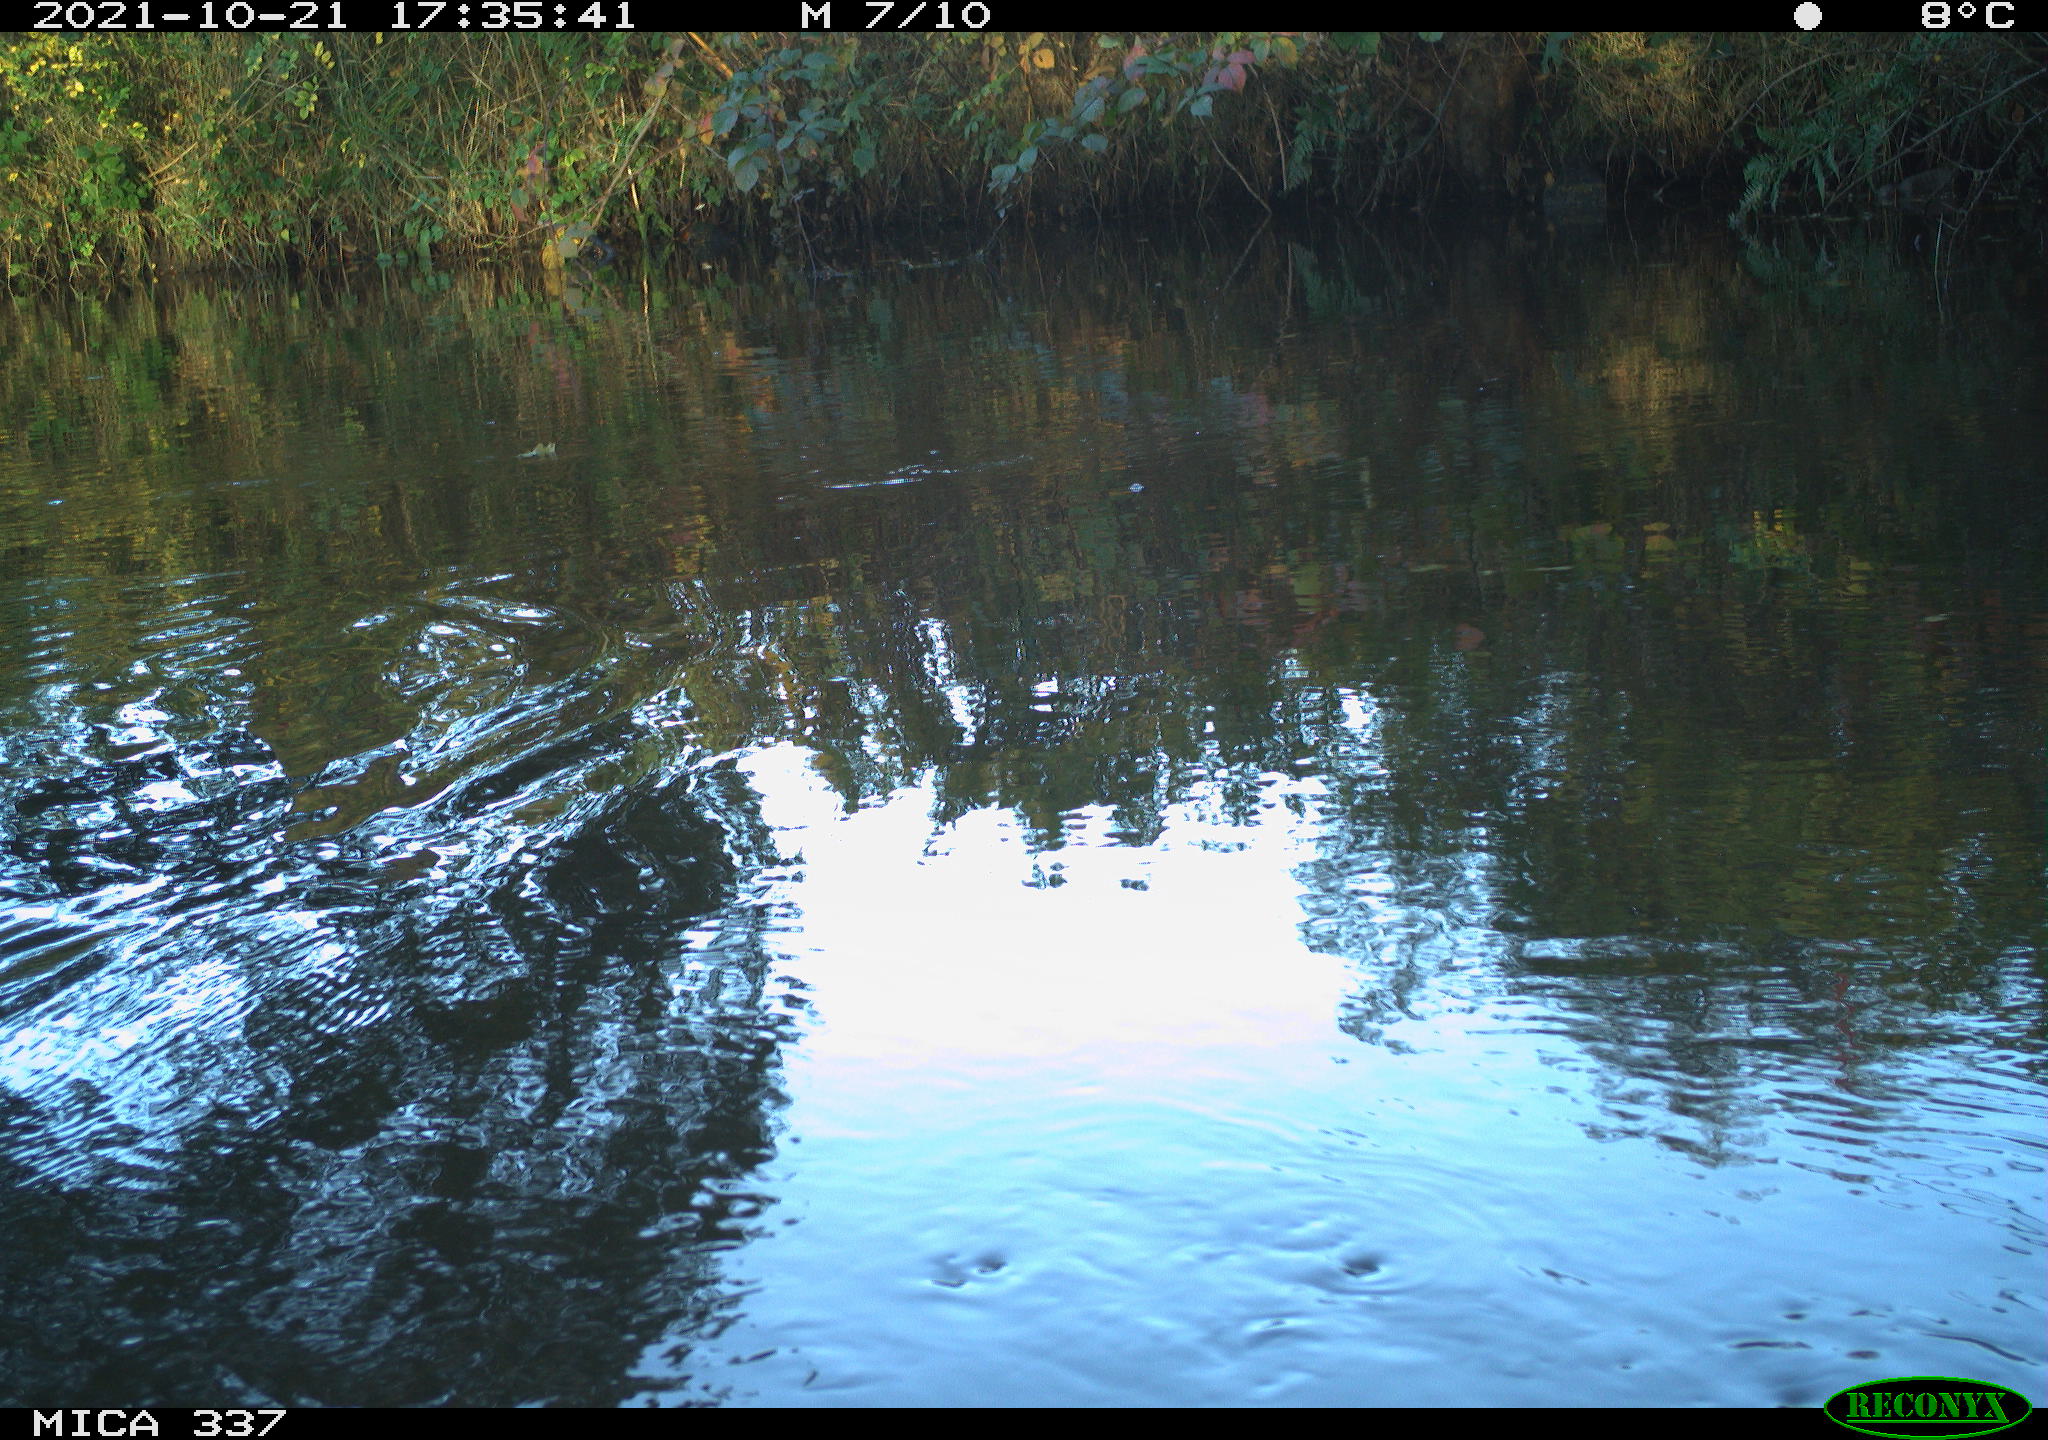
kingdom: Animalia
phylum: Chordata
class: Aves
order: Gruiformes
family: Rallidae
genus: Gallinula
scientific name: Gallinula chloropus
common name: Common moorhen
